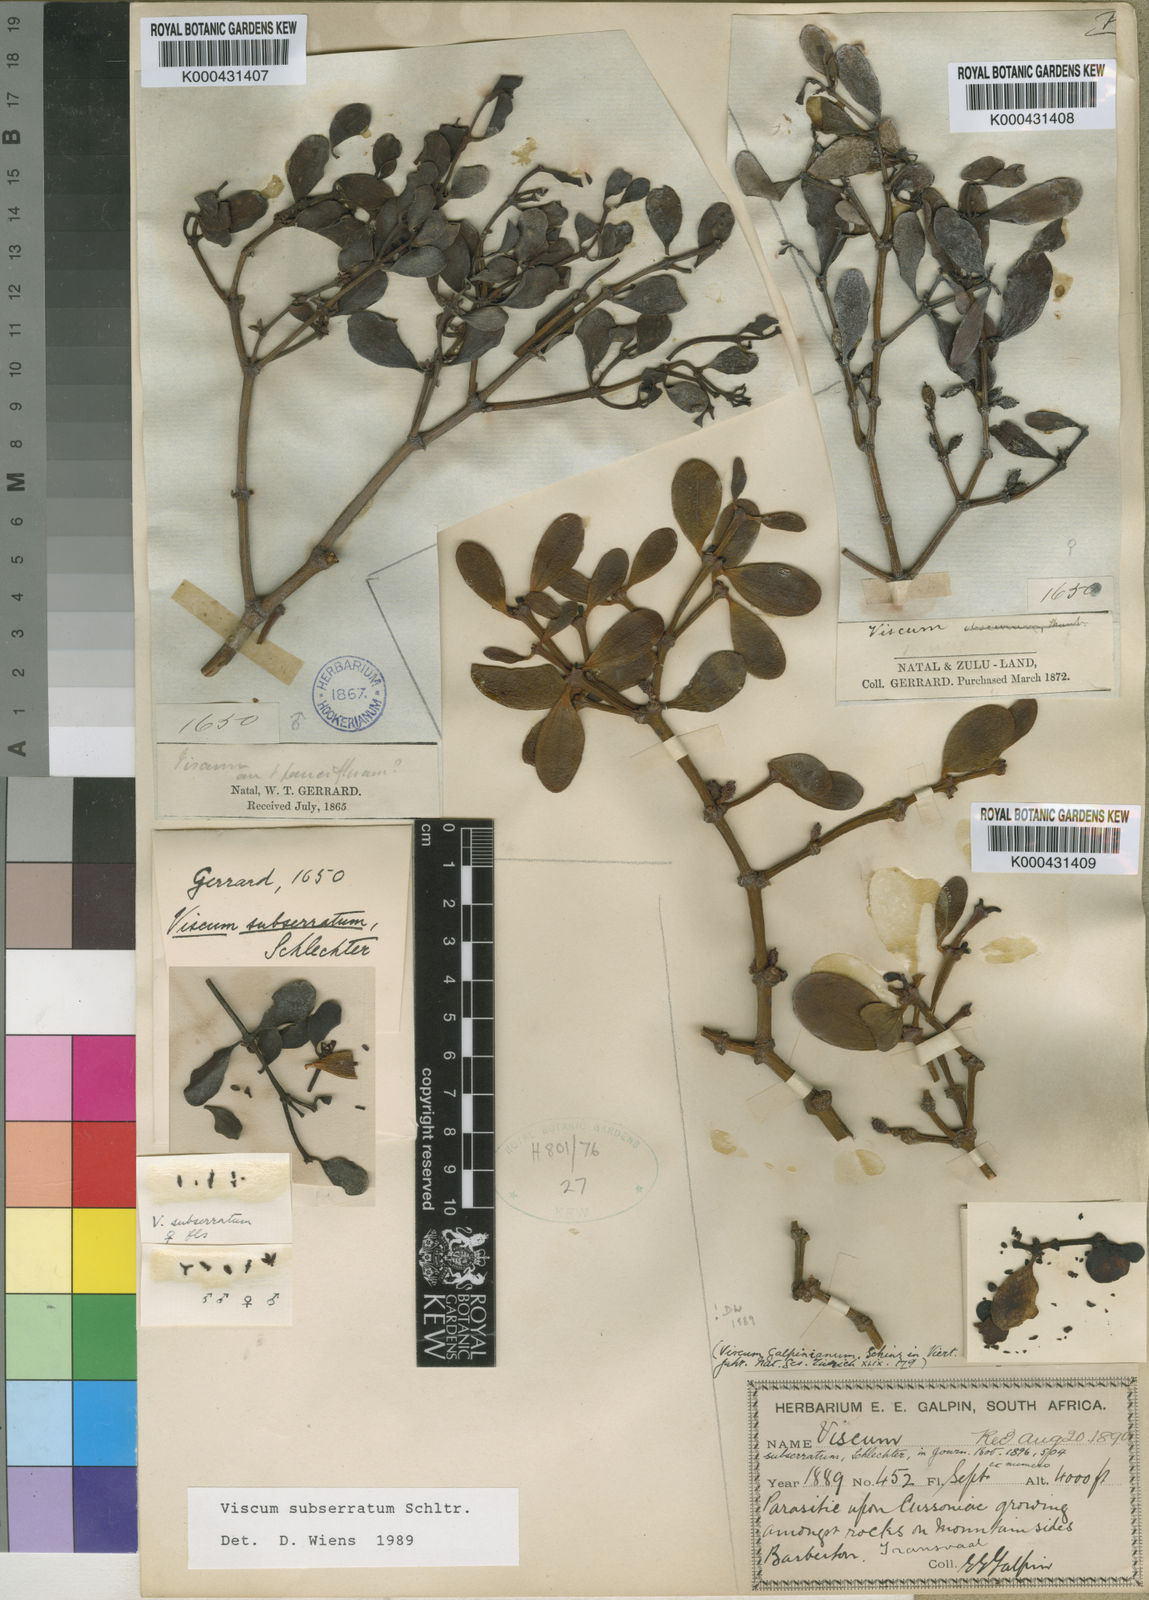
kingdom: Plantae
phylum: Tracheophyta
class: Magnoliopsida
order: Santalales
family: Viscaceae
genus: Viscum
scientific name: Viscum subserratum
